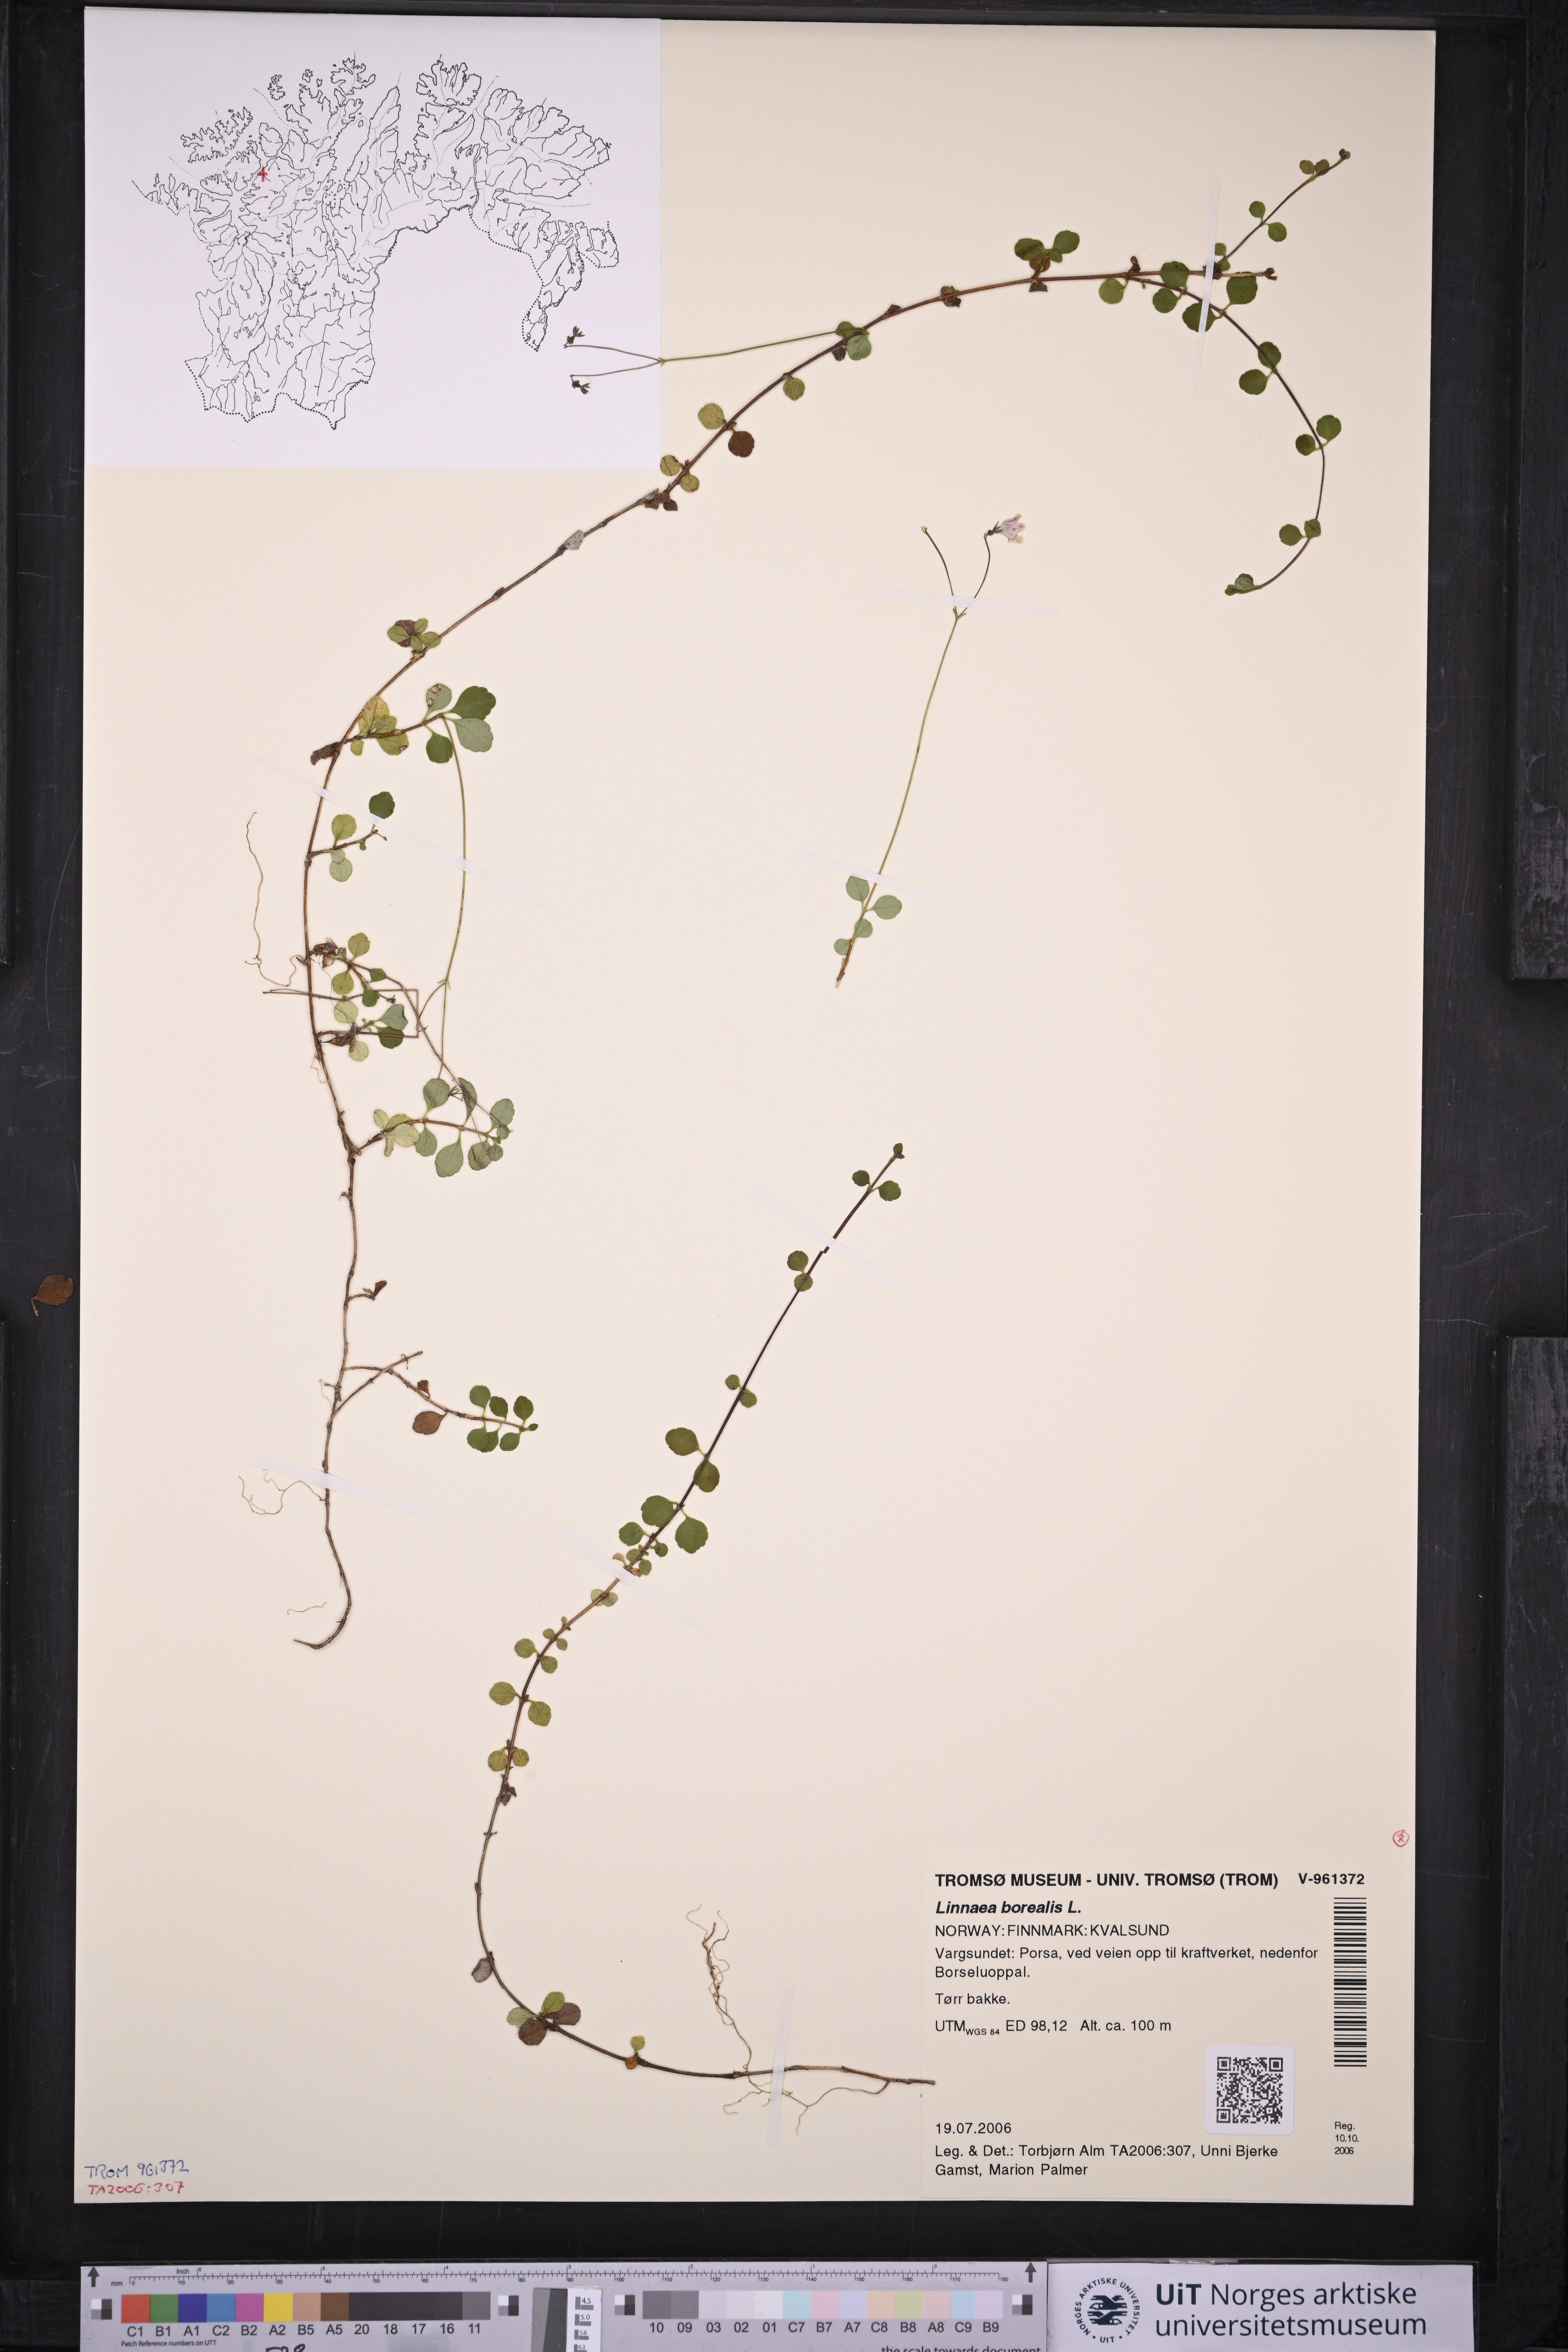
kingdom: Plantae
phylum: Tracheophyta
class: Magnoliopsida
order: Dipsacales
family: Caprifoliaceae
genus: Linnaea
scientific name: Linnaea borealis
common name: Twinflower
